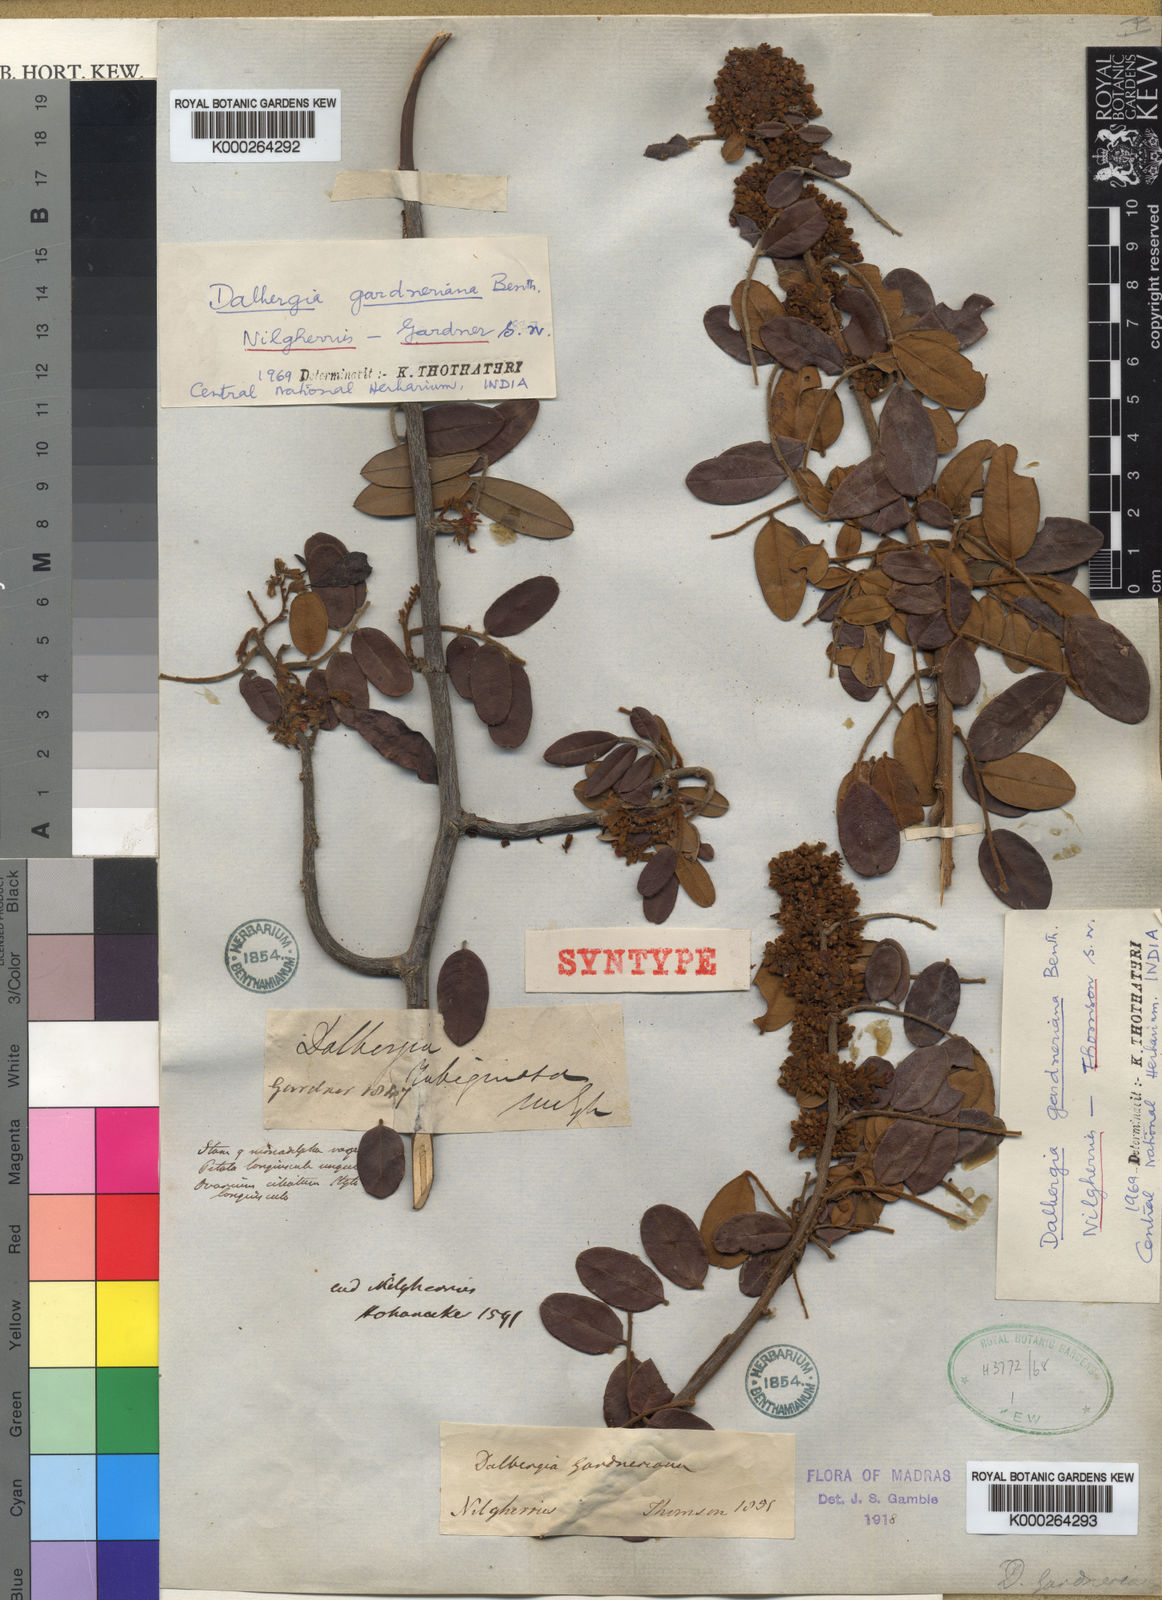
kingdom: Plantae
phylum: Tracheophyta
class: Magnoliopsida
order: Fabales
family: Fabaceae
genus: Dalbergia
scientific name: Dalbergia gardneriana
